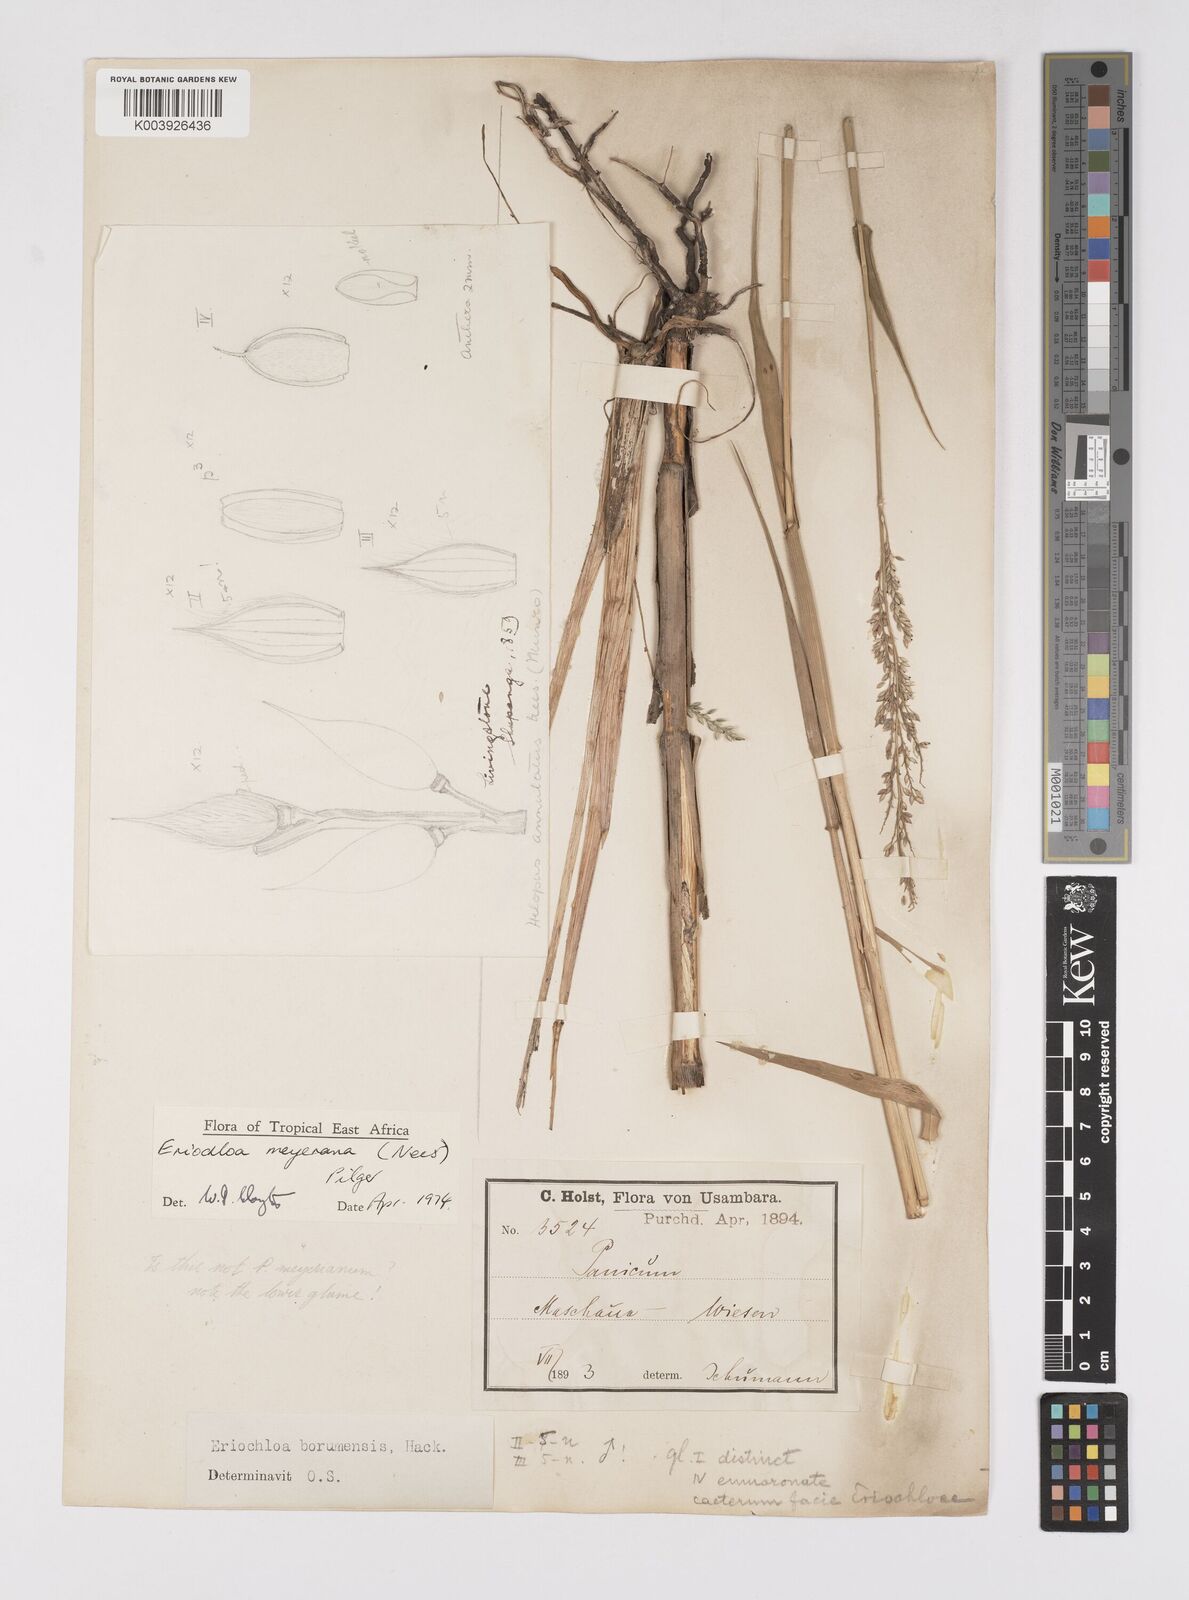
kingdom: Plantae
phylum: Tracheophyta
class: Liliopsida
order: Poales
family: Poaceae
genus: Eriochloa
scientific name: Eriochloa meyeriana
